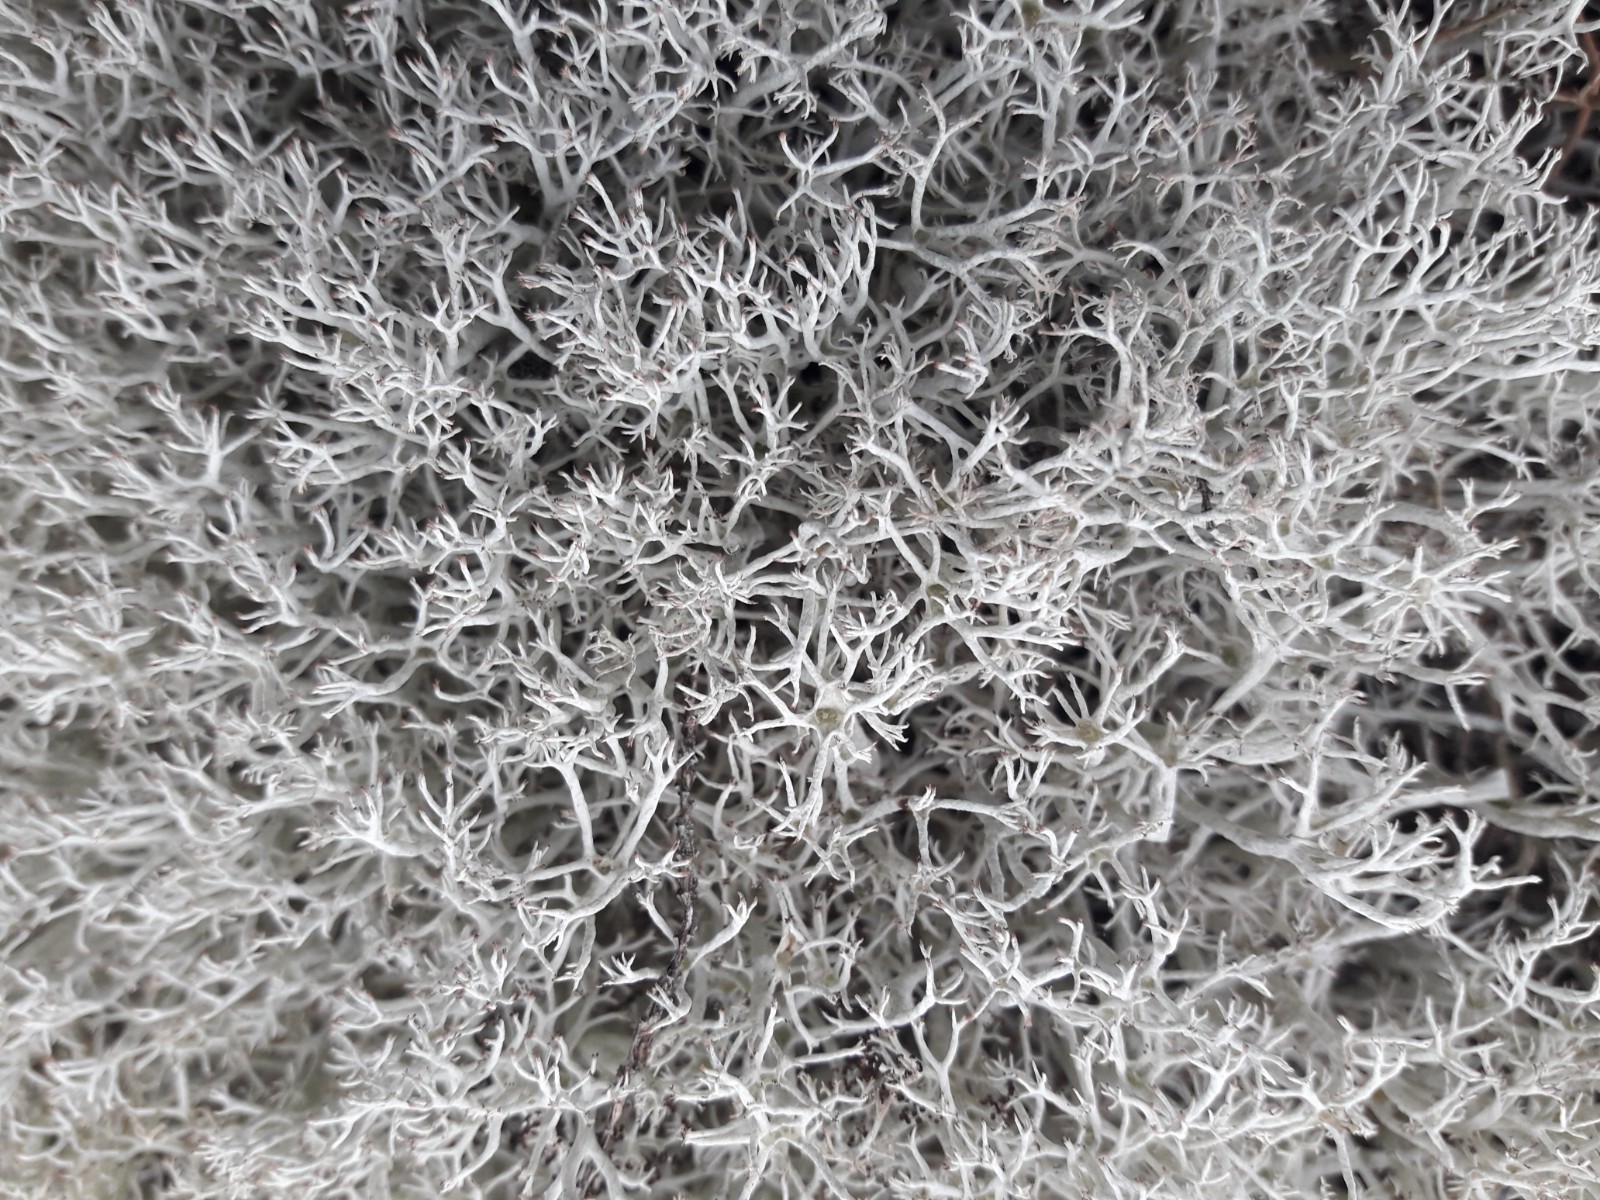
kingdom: Fungi
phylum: Ascomycota
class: Lecanoromycetes
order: Lecanorales
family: Cladoniaceae
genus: Cladonia
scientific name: Cladonia portentosa
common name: hede-rensdyrlav
